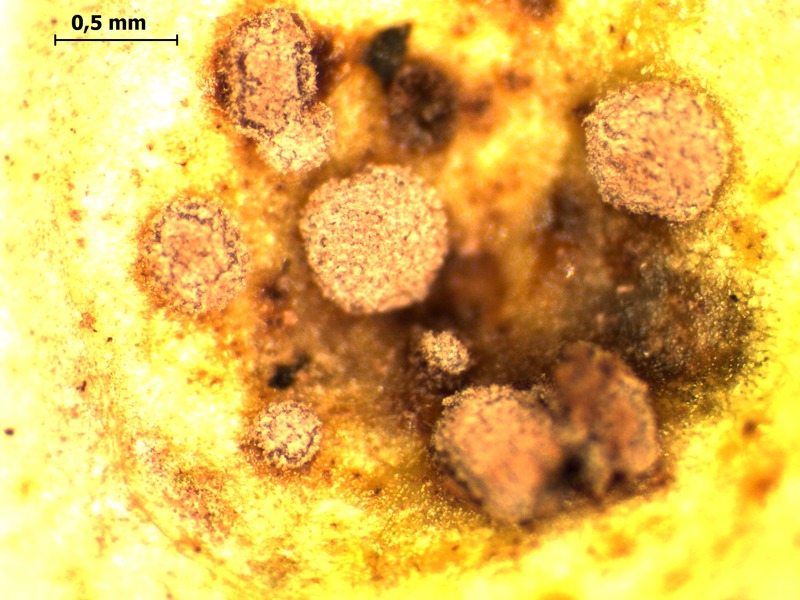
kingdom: Fungi
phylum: Basidiomycota
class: Pucciniomycetes
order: Helicobasidiales
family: Helicobasidiaceae
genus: Helicobasidium
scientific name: Helicobasidium purpureum
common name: Violet root rot
